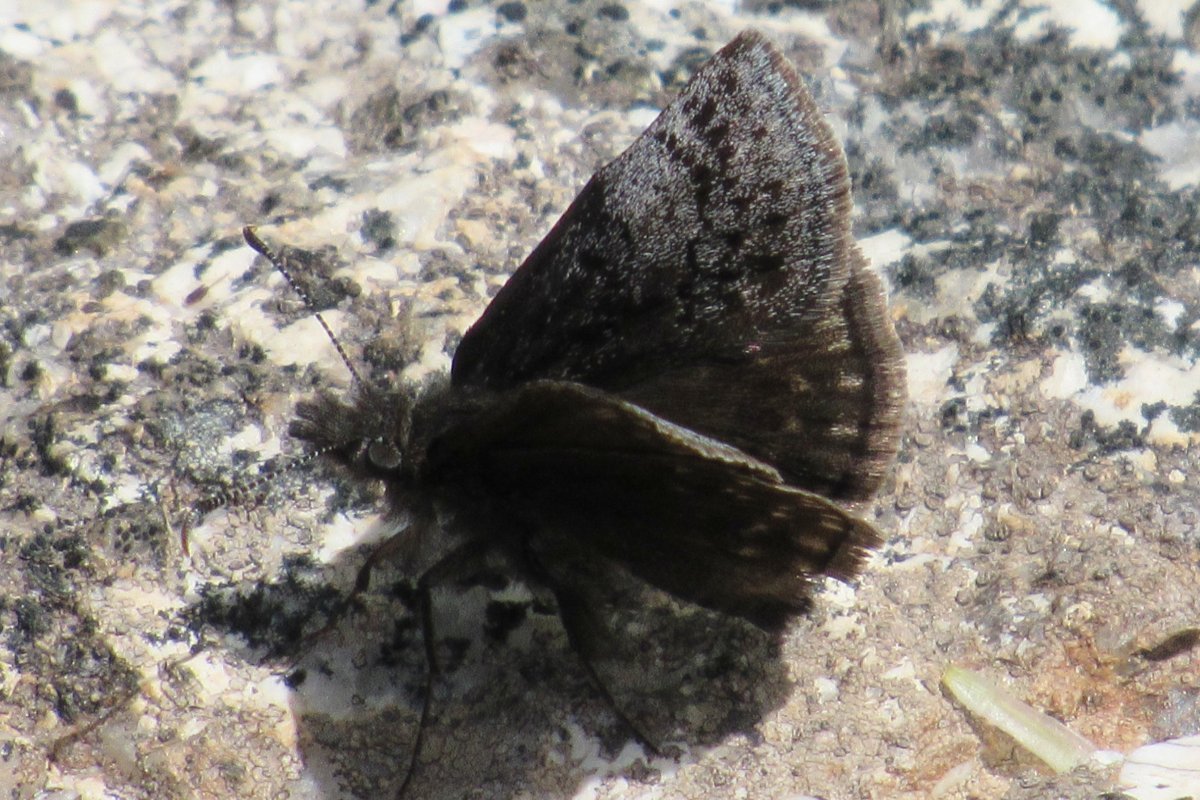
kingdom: Animalia
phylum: Arthropoda
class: Insecta
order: Lepidoptera
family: Hesperiidae
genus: Erynnis
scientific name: Erynnis icelus
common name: Dreamy Duskywing
